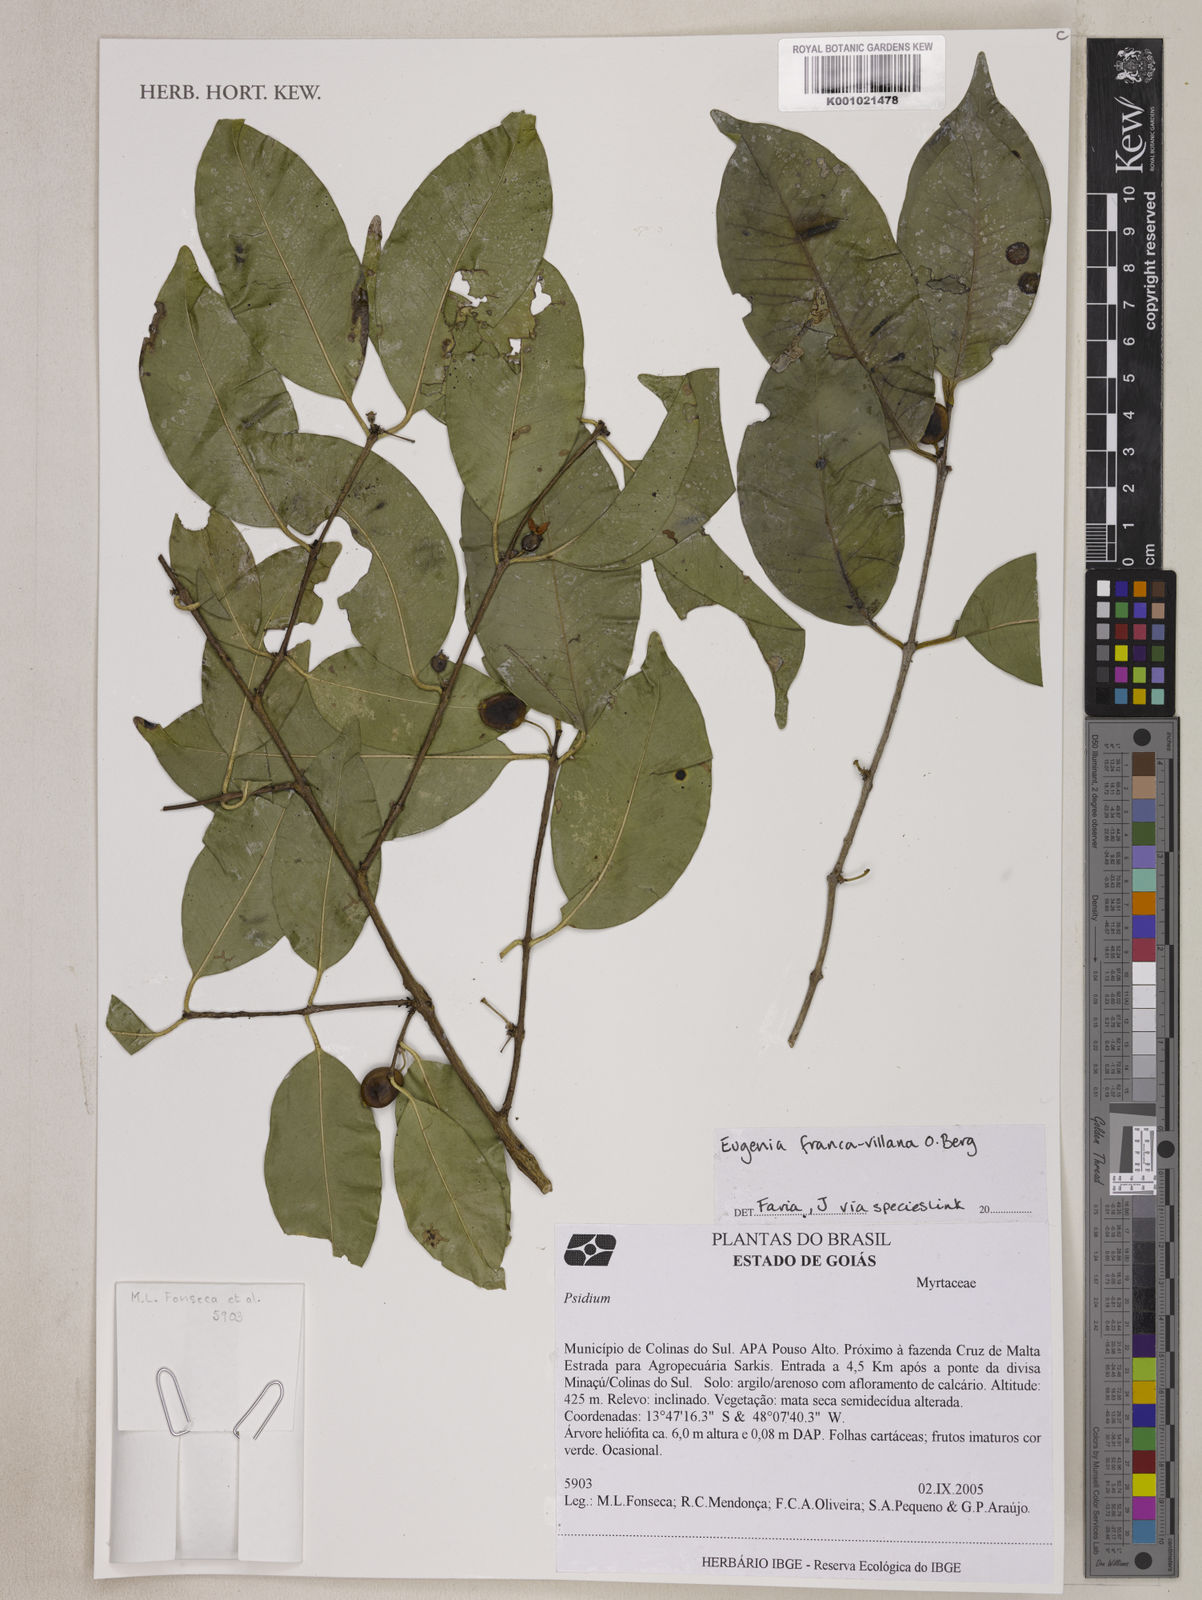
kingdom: Plantae
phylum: Tracheophyta
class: Magnoliopsida
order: Myrtales
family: Myrtaceae
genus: Eugenia
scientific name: Eugenia francavilleana
